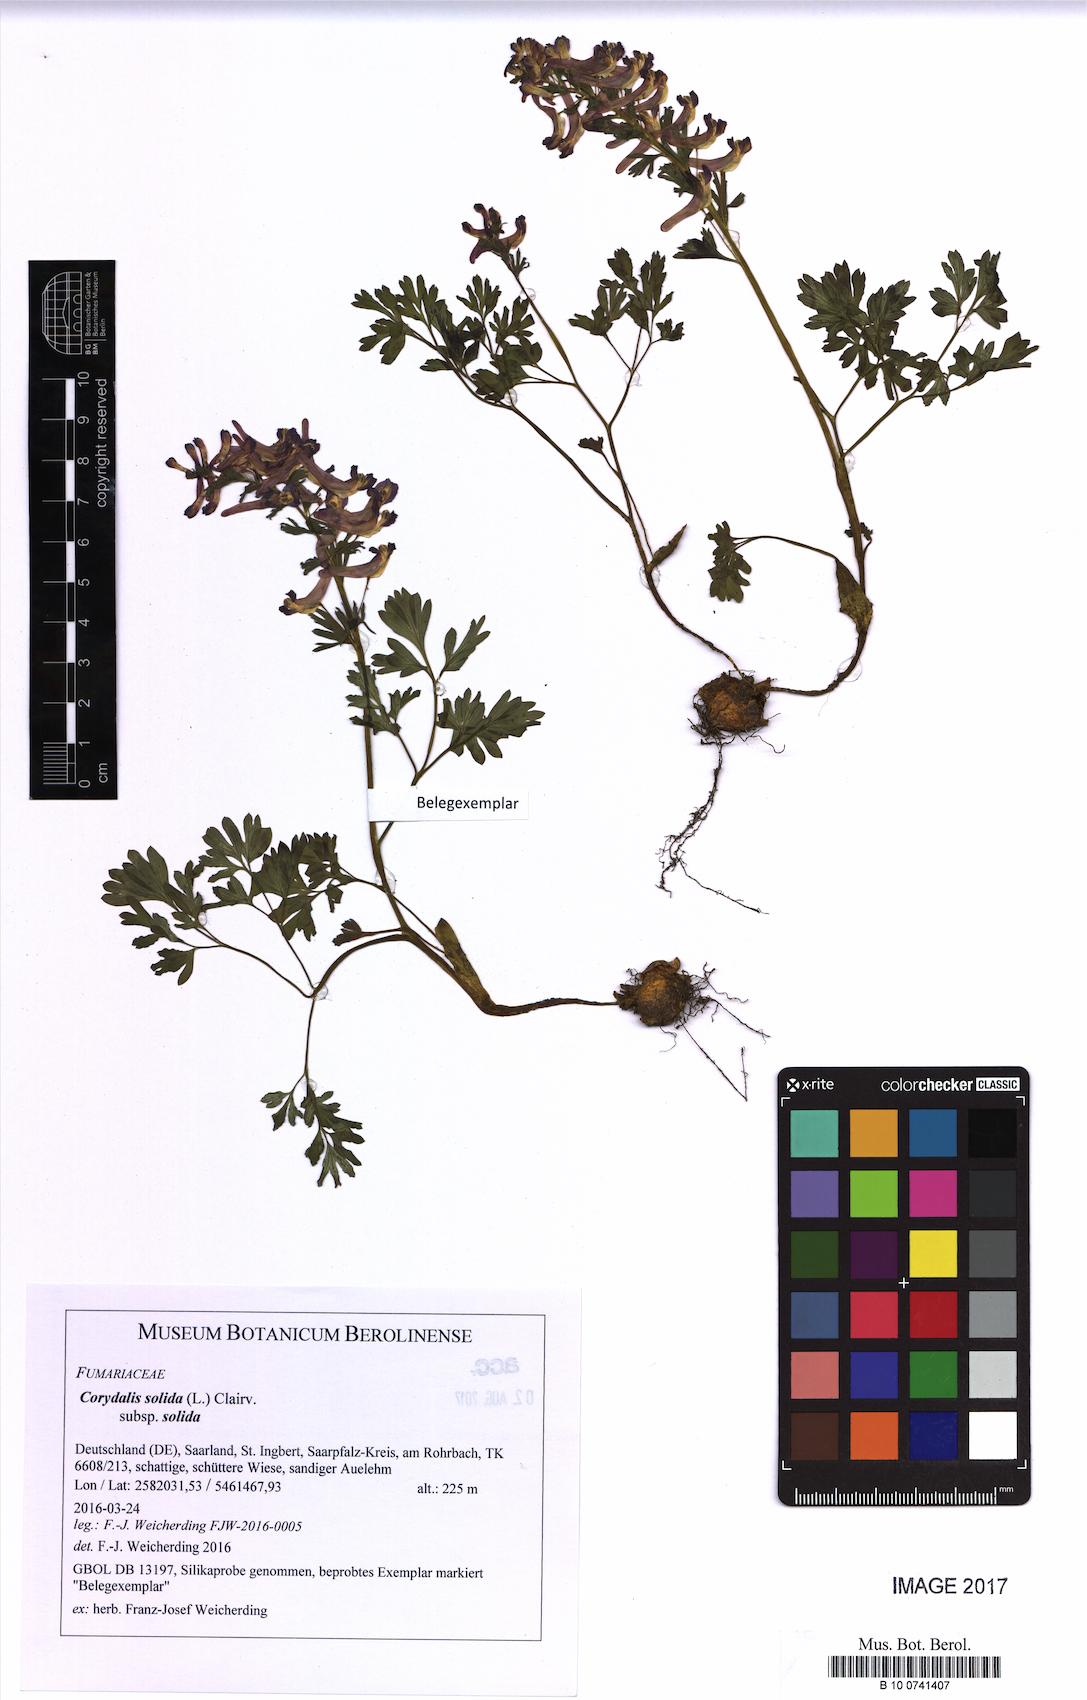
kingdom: Plantae
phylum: Tracheophyta
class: Magnoliopsida
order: Ranunculales
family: Papaveraceae
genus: Corydalis
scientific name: Corydalis solida
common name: Bird-in-a-bush
